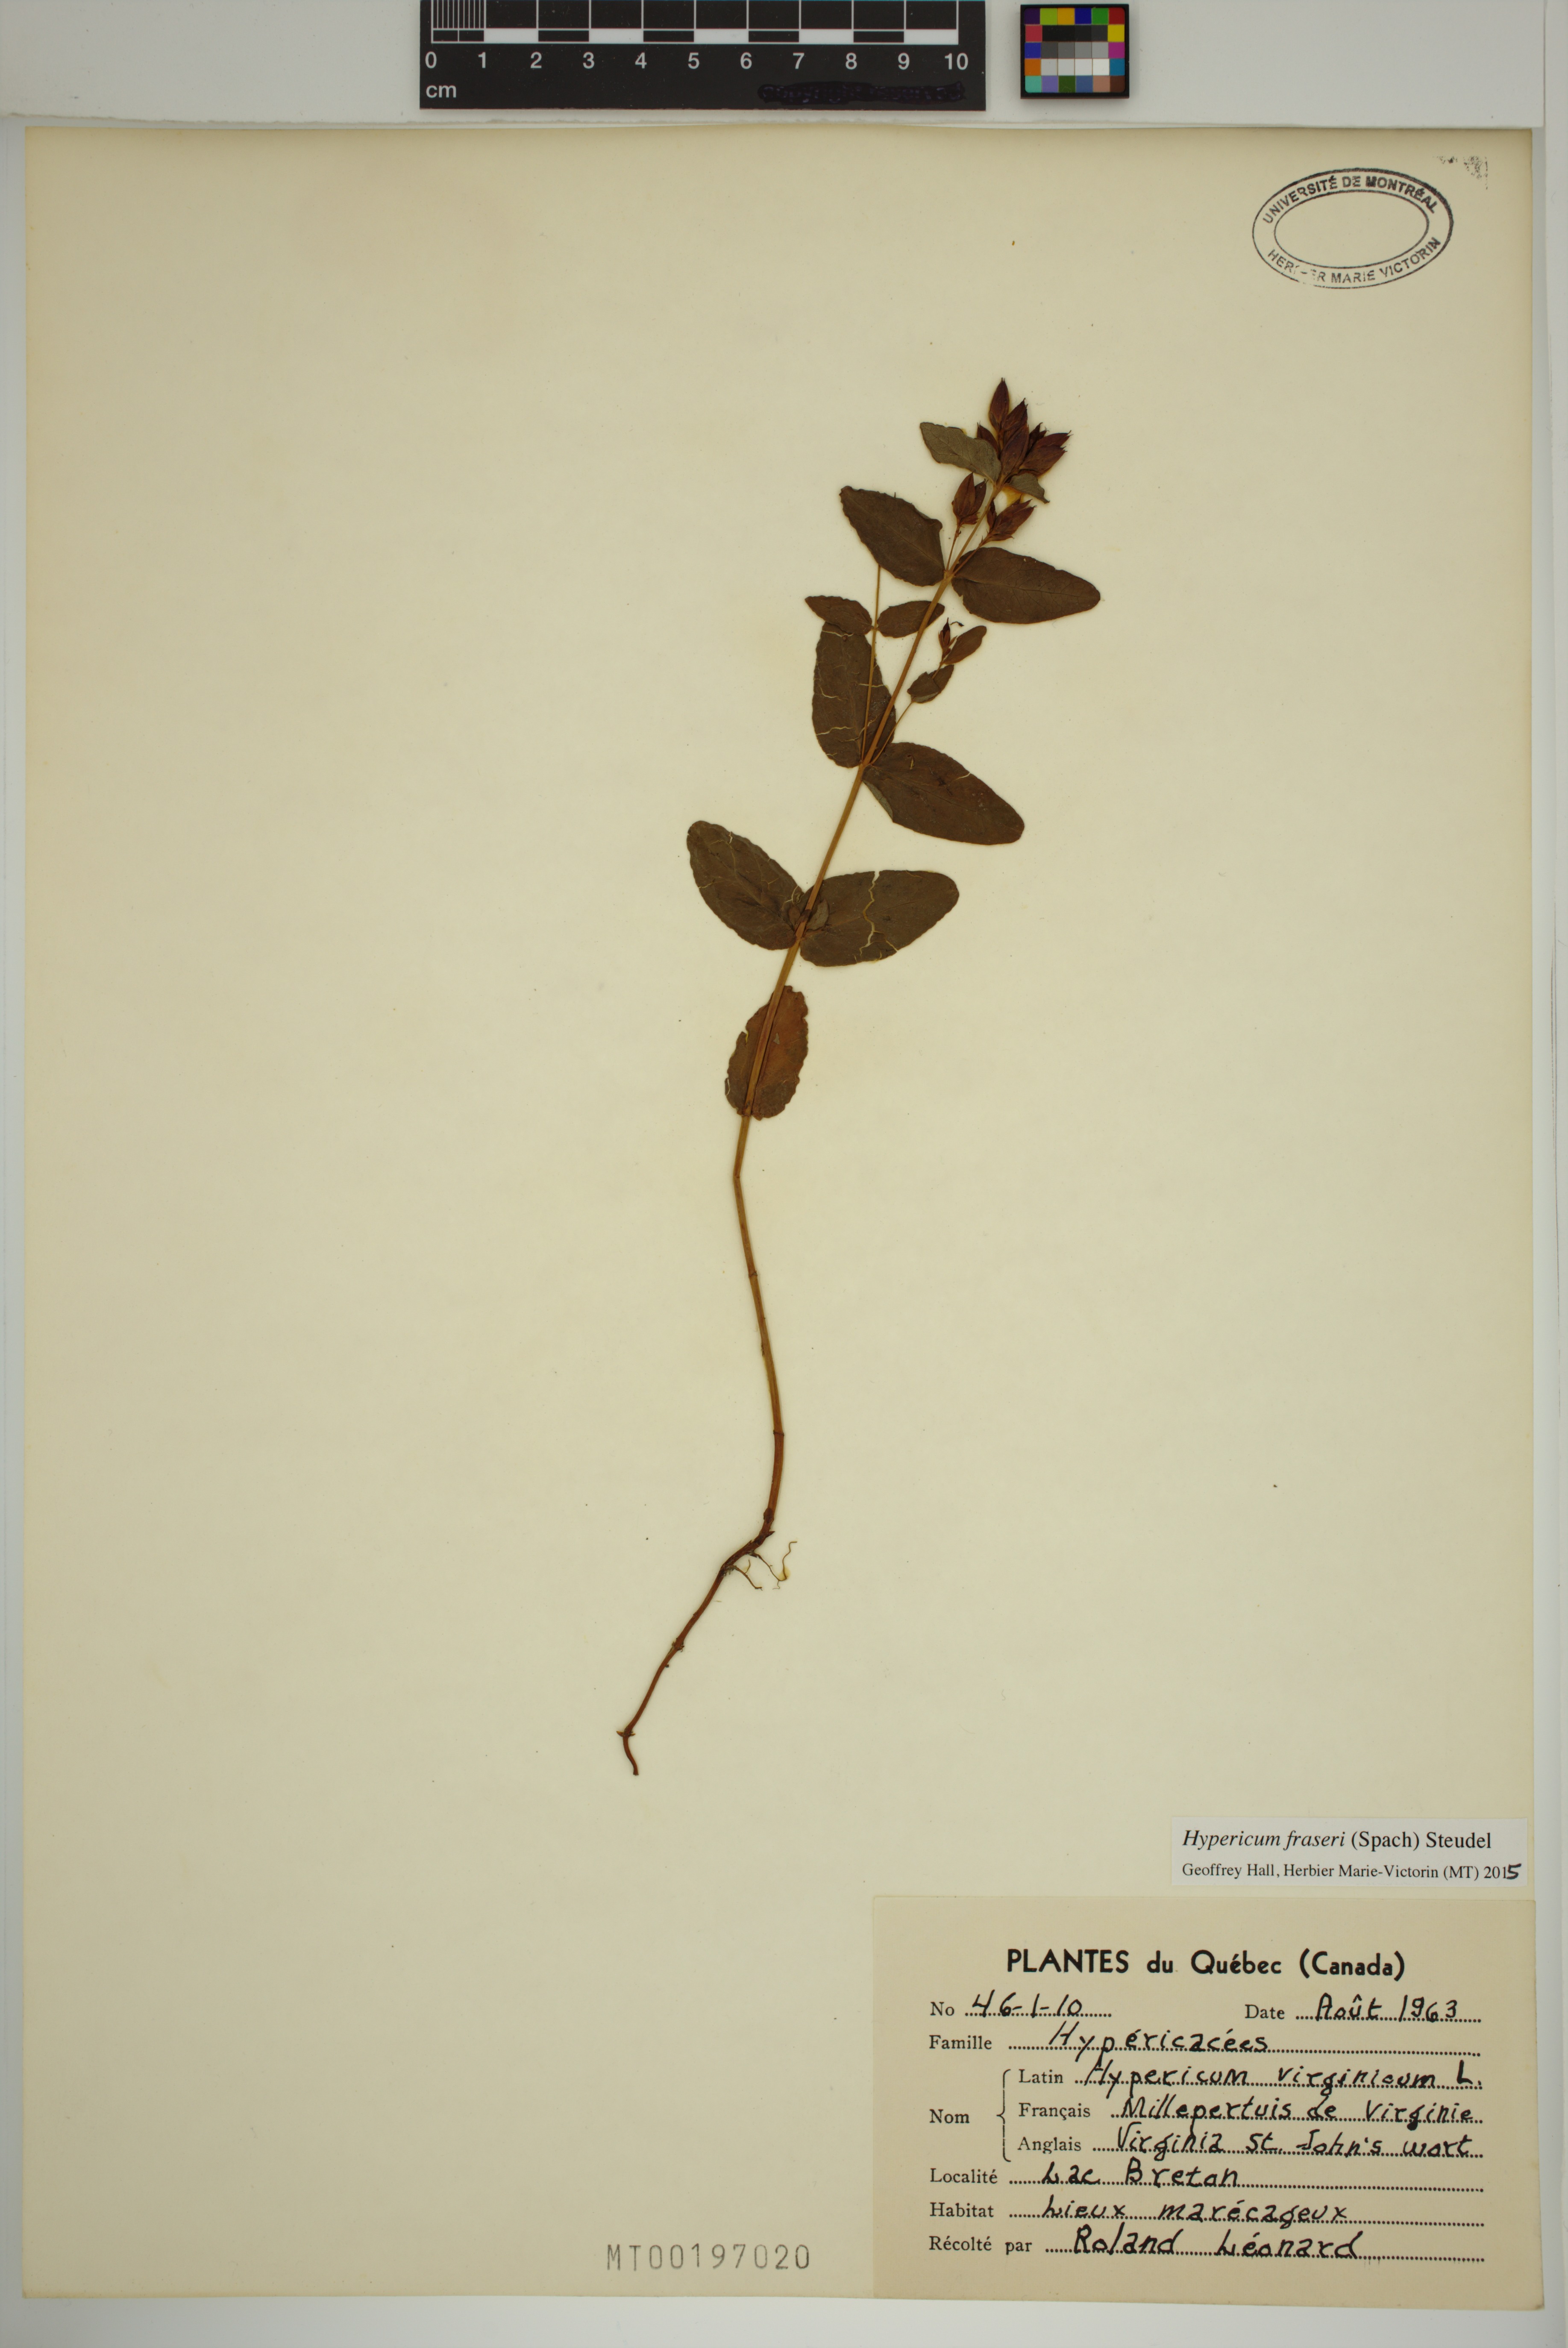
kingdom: Plantae
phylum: Tracheophyta
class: Magnoliopsida
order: Malpighiales
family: Hypericaceae
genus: Triadenum
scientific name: Triadenum fraseri
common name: Fraser's marsh st. johnswort
